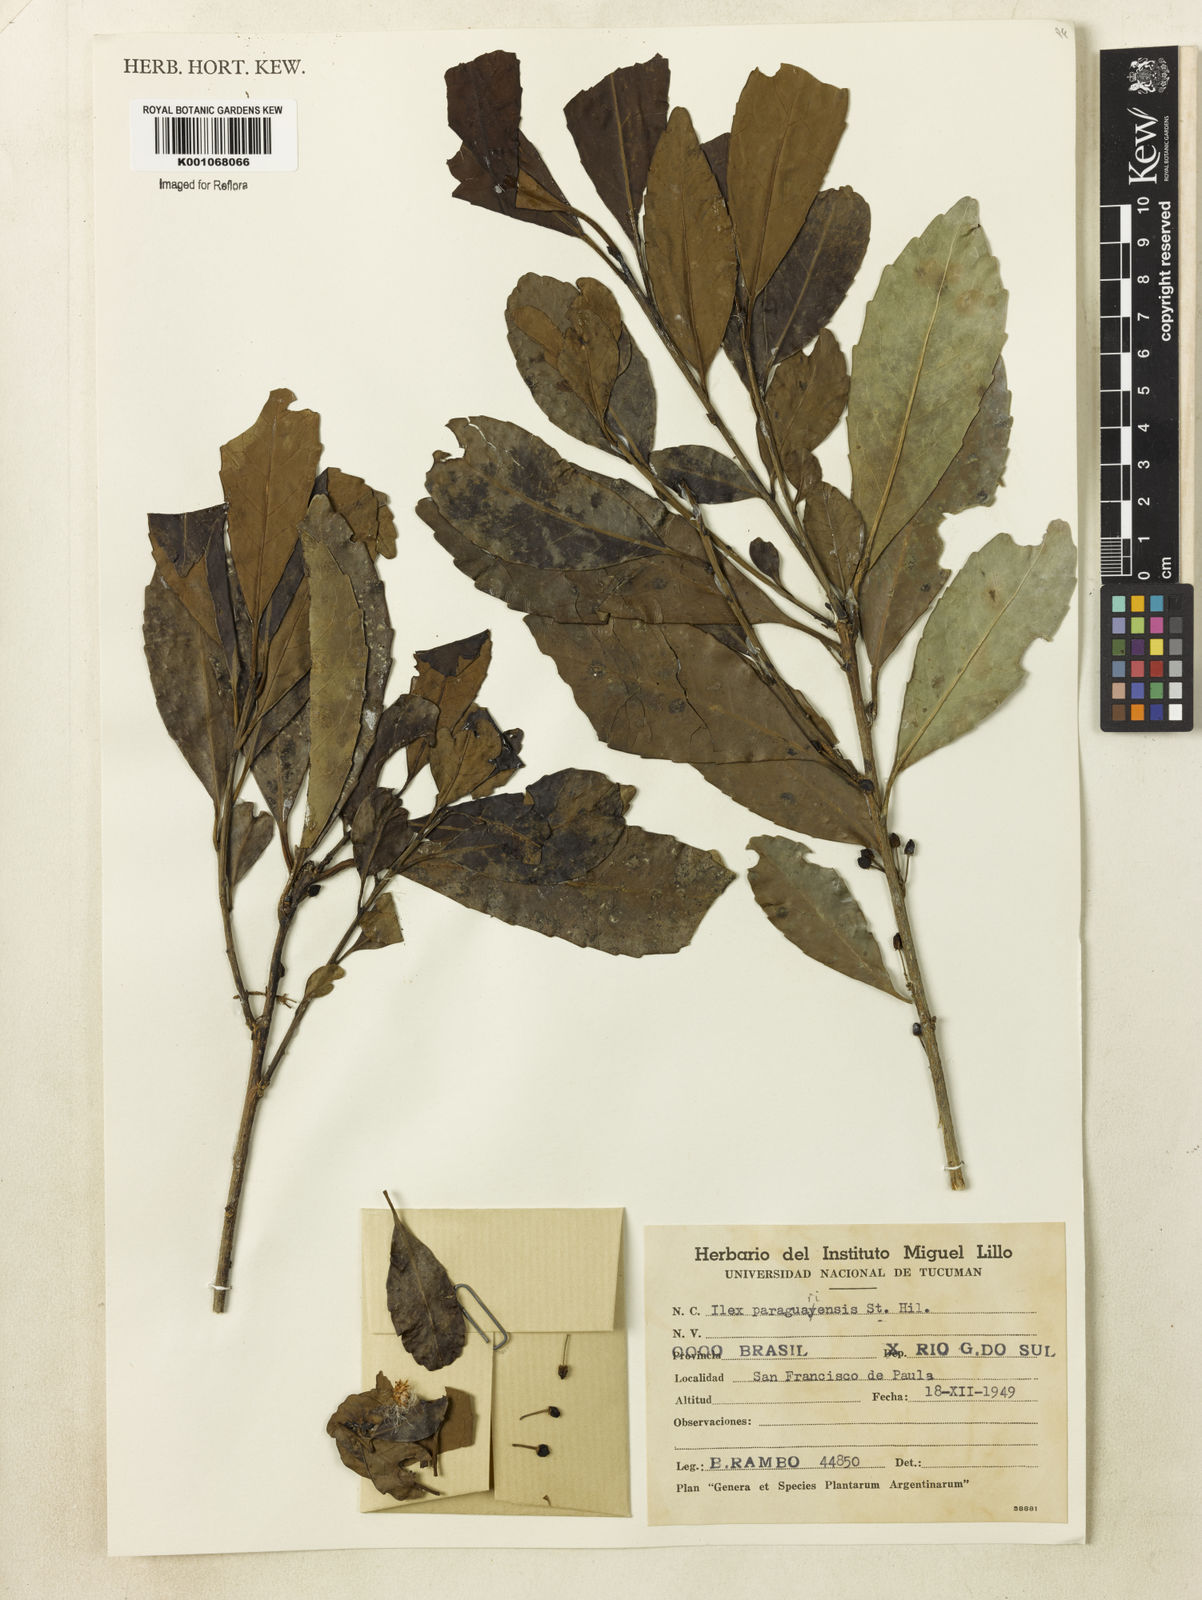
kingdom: Plantae
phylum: Tracheophyta
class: Magnoliopsida
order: Aquifoliales
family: Aquifoliaceae
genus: Ilex
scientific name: Ilex paraguariensis
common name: Paraguay tea
